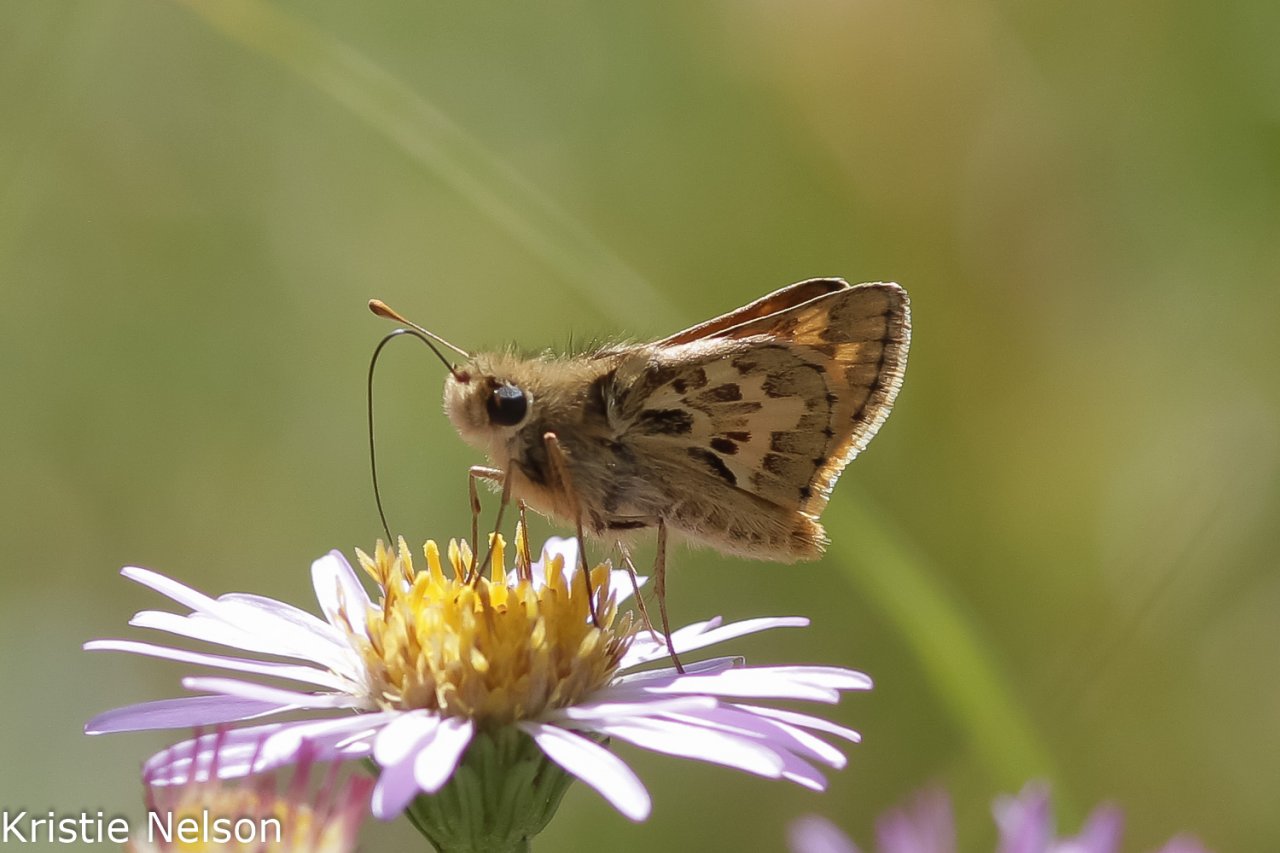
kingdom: Animalia
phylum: Arthropoda
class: Insecta
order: Lepidoptera
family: Hesperiidae
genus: Polites
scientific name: Polites sabuleti
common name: Sandhill Skipper
